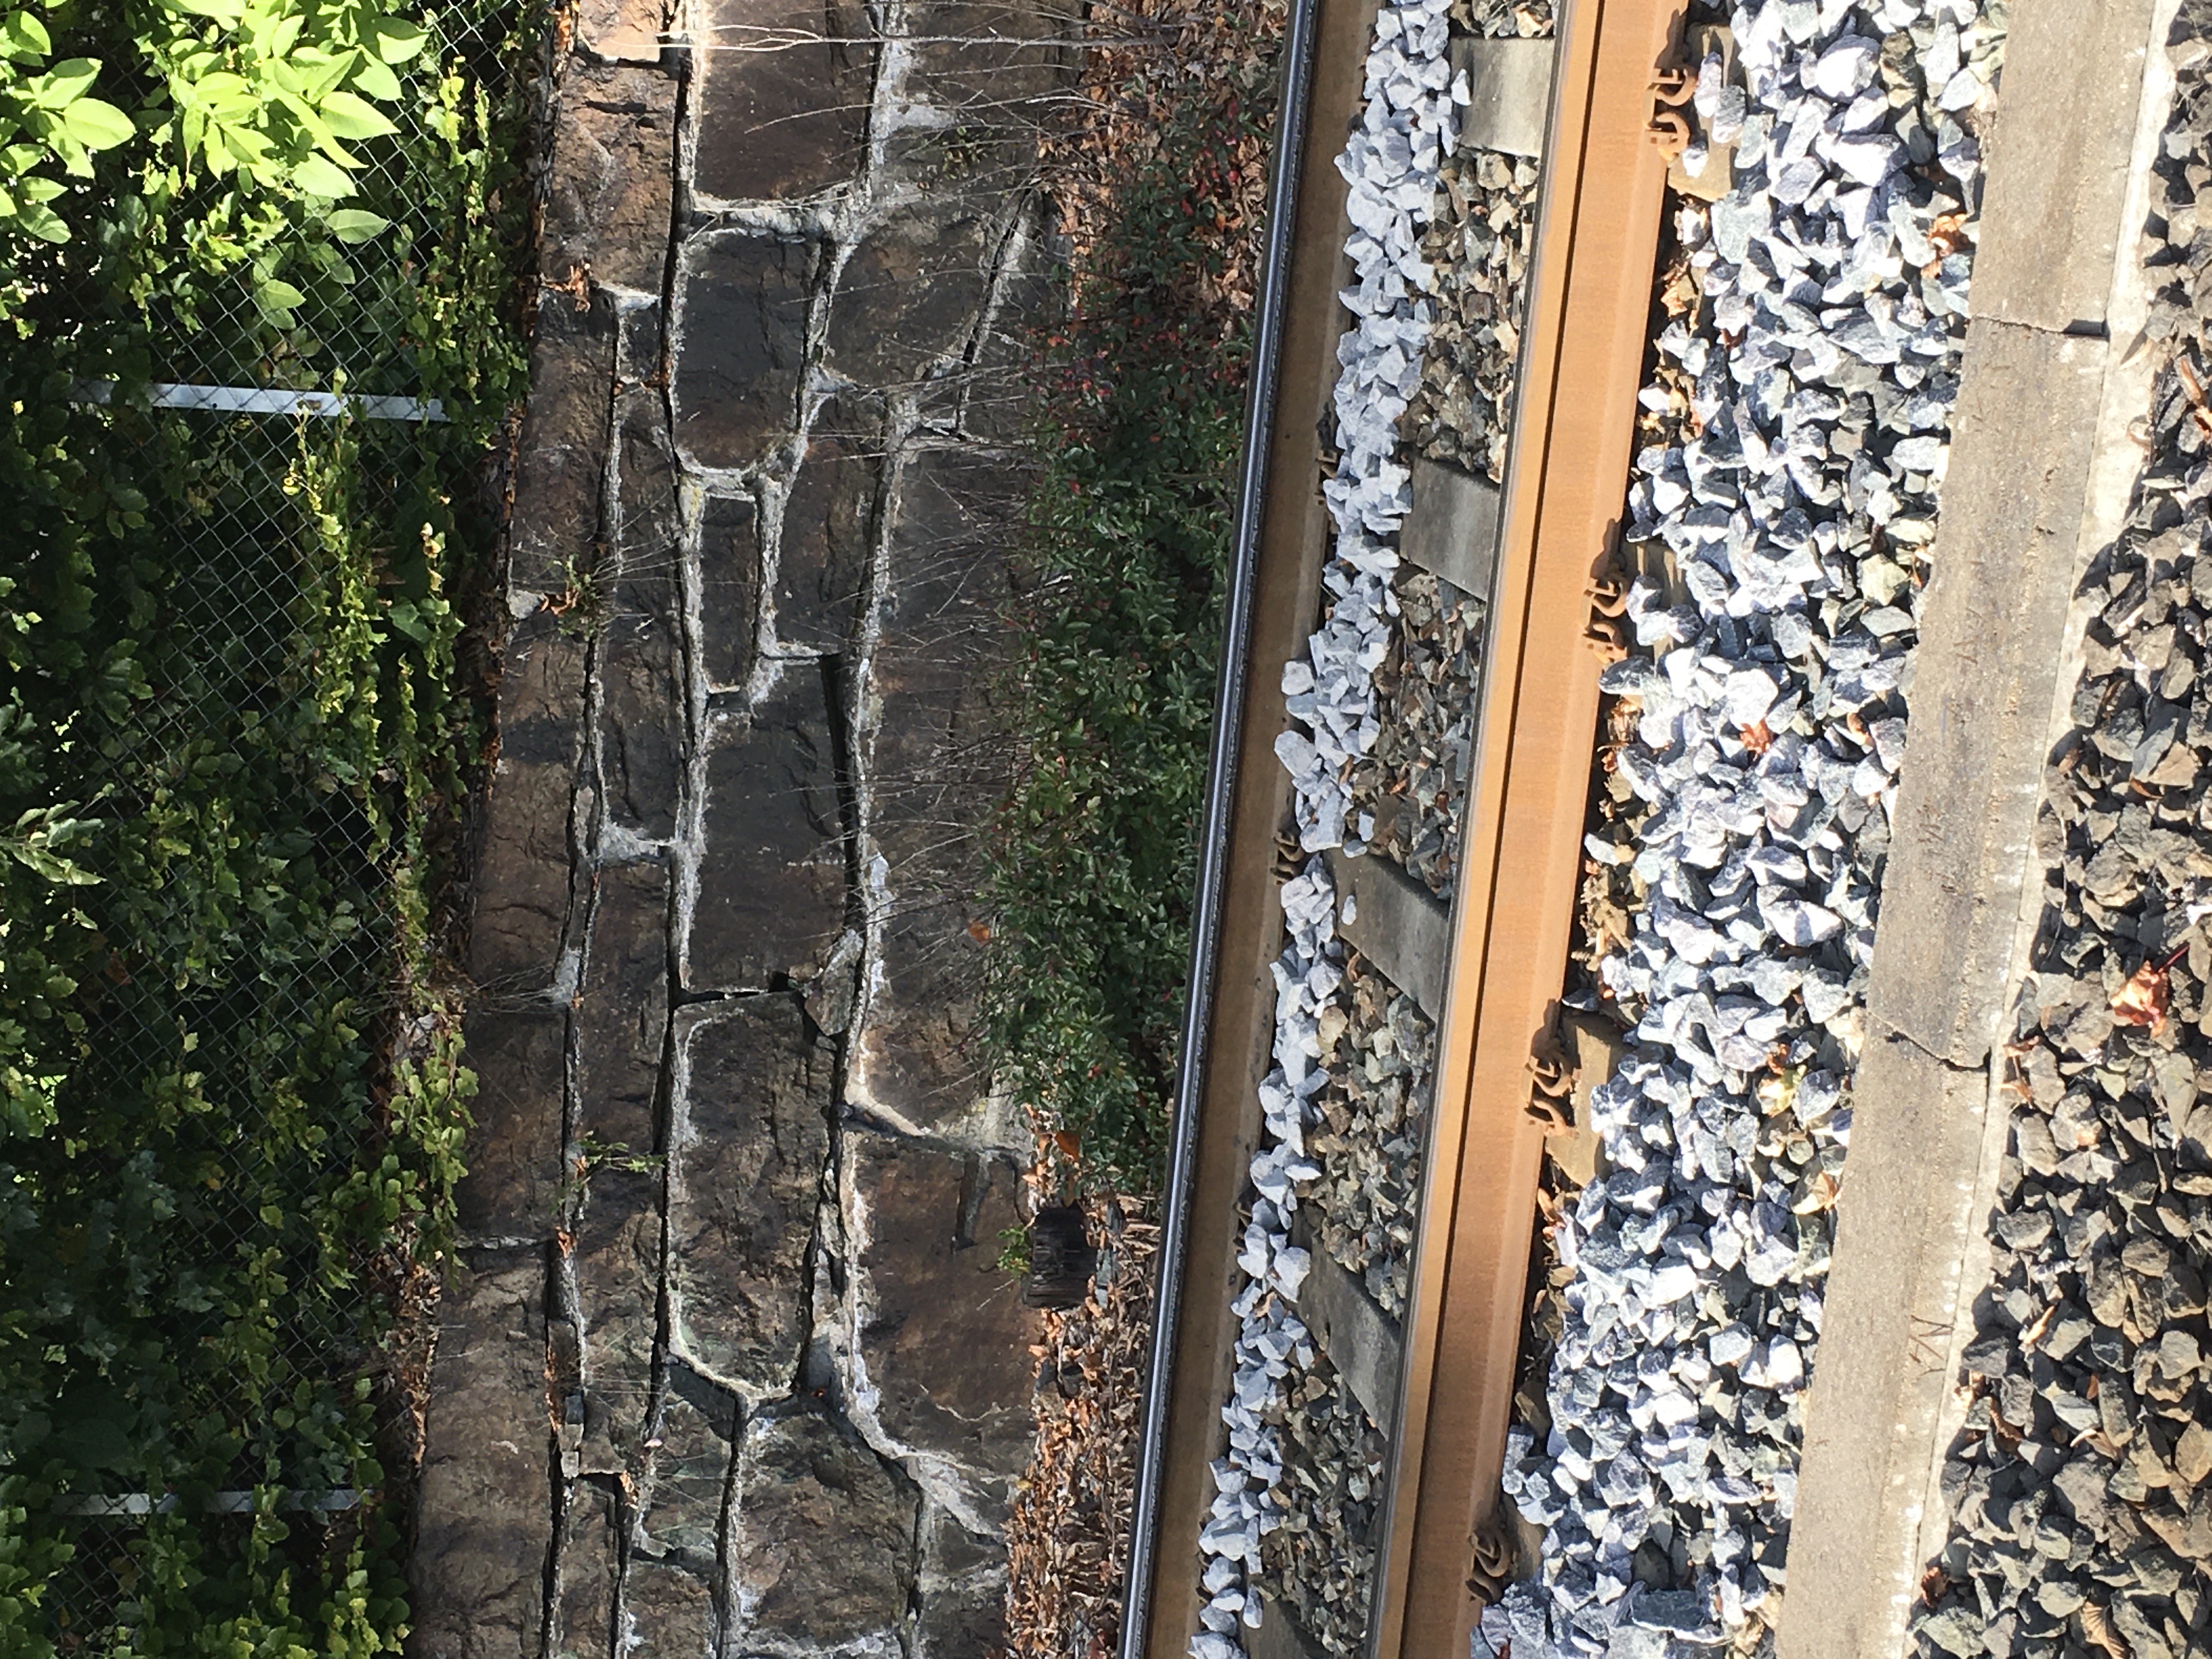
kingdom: Plantae
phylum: Tracheophyta
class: Magnoliopsida
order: Rosales
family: Rosaceae
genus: Cotoneaster
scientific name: Cotoneaster acutifolius
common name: blankmispel
